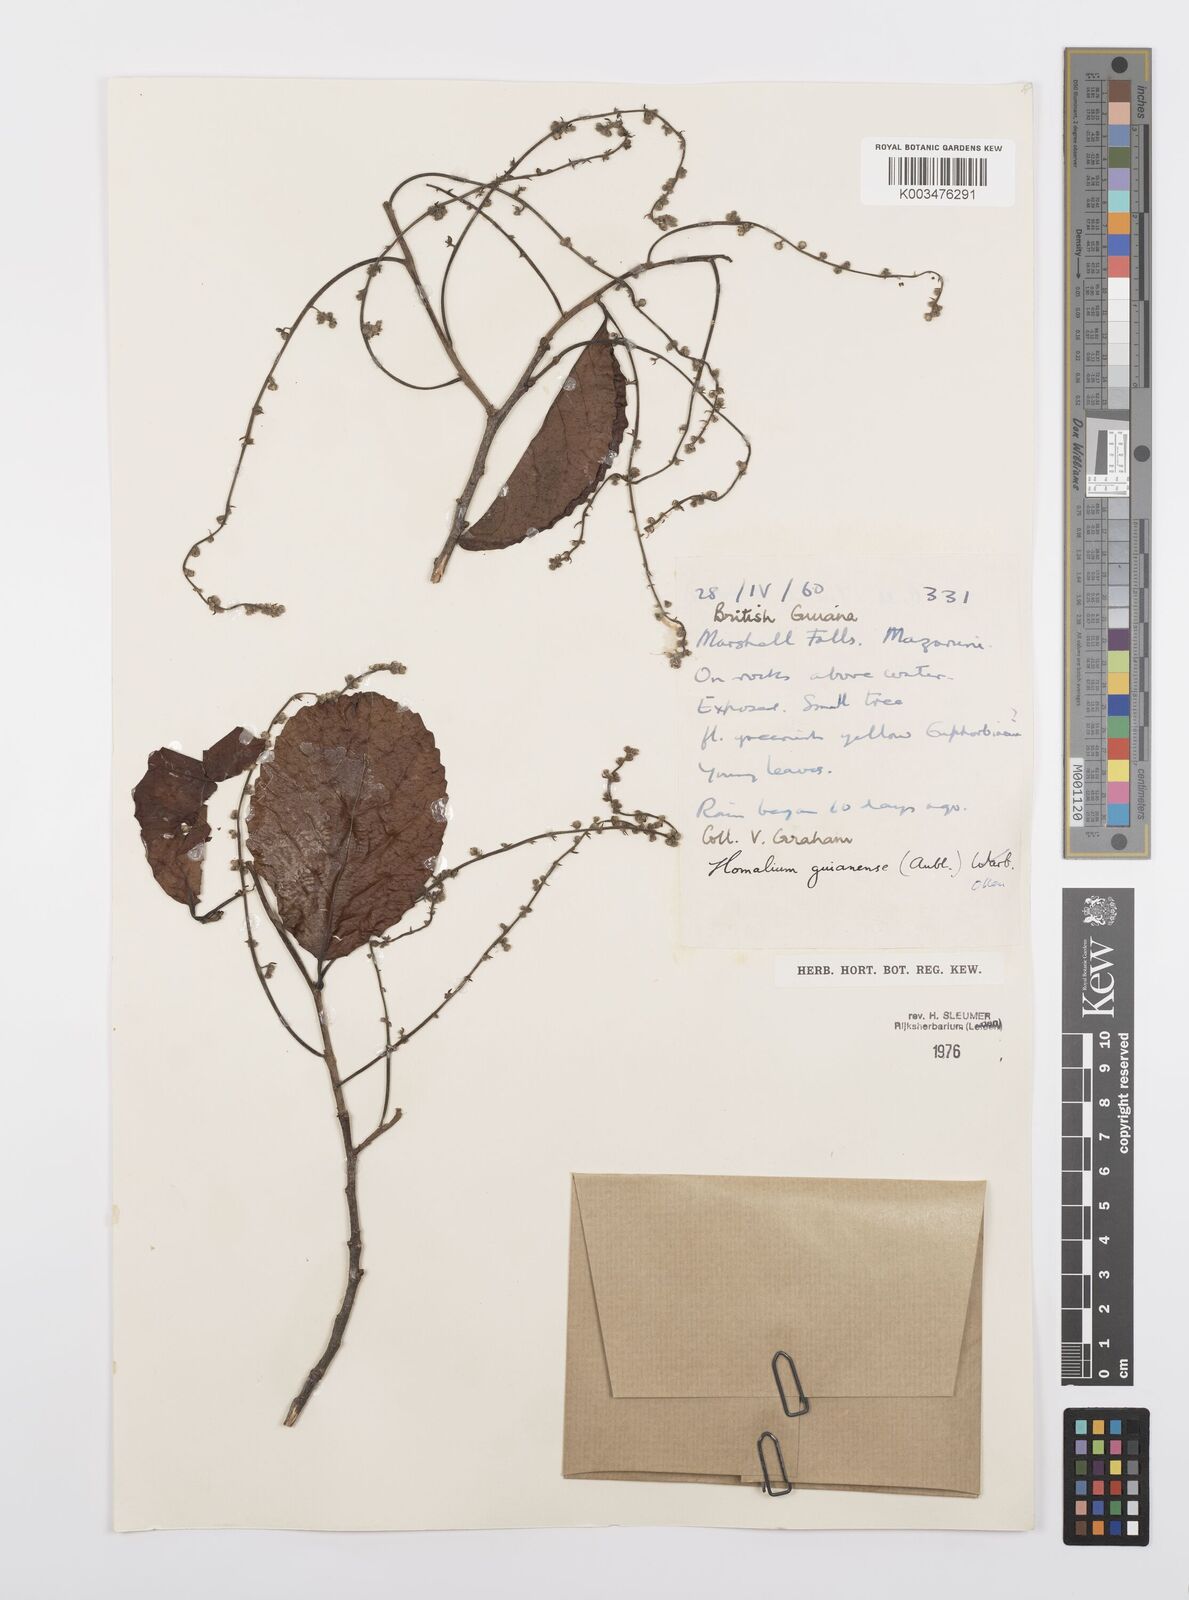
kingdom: Plantae
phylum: Tracheophyta
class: Magnoliopsida
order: Malpighiales
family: Salicaceae
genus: Homalium
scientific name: Homalium guianense
